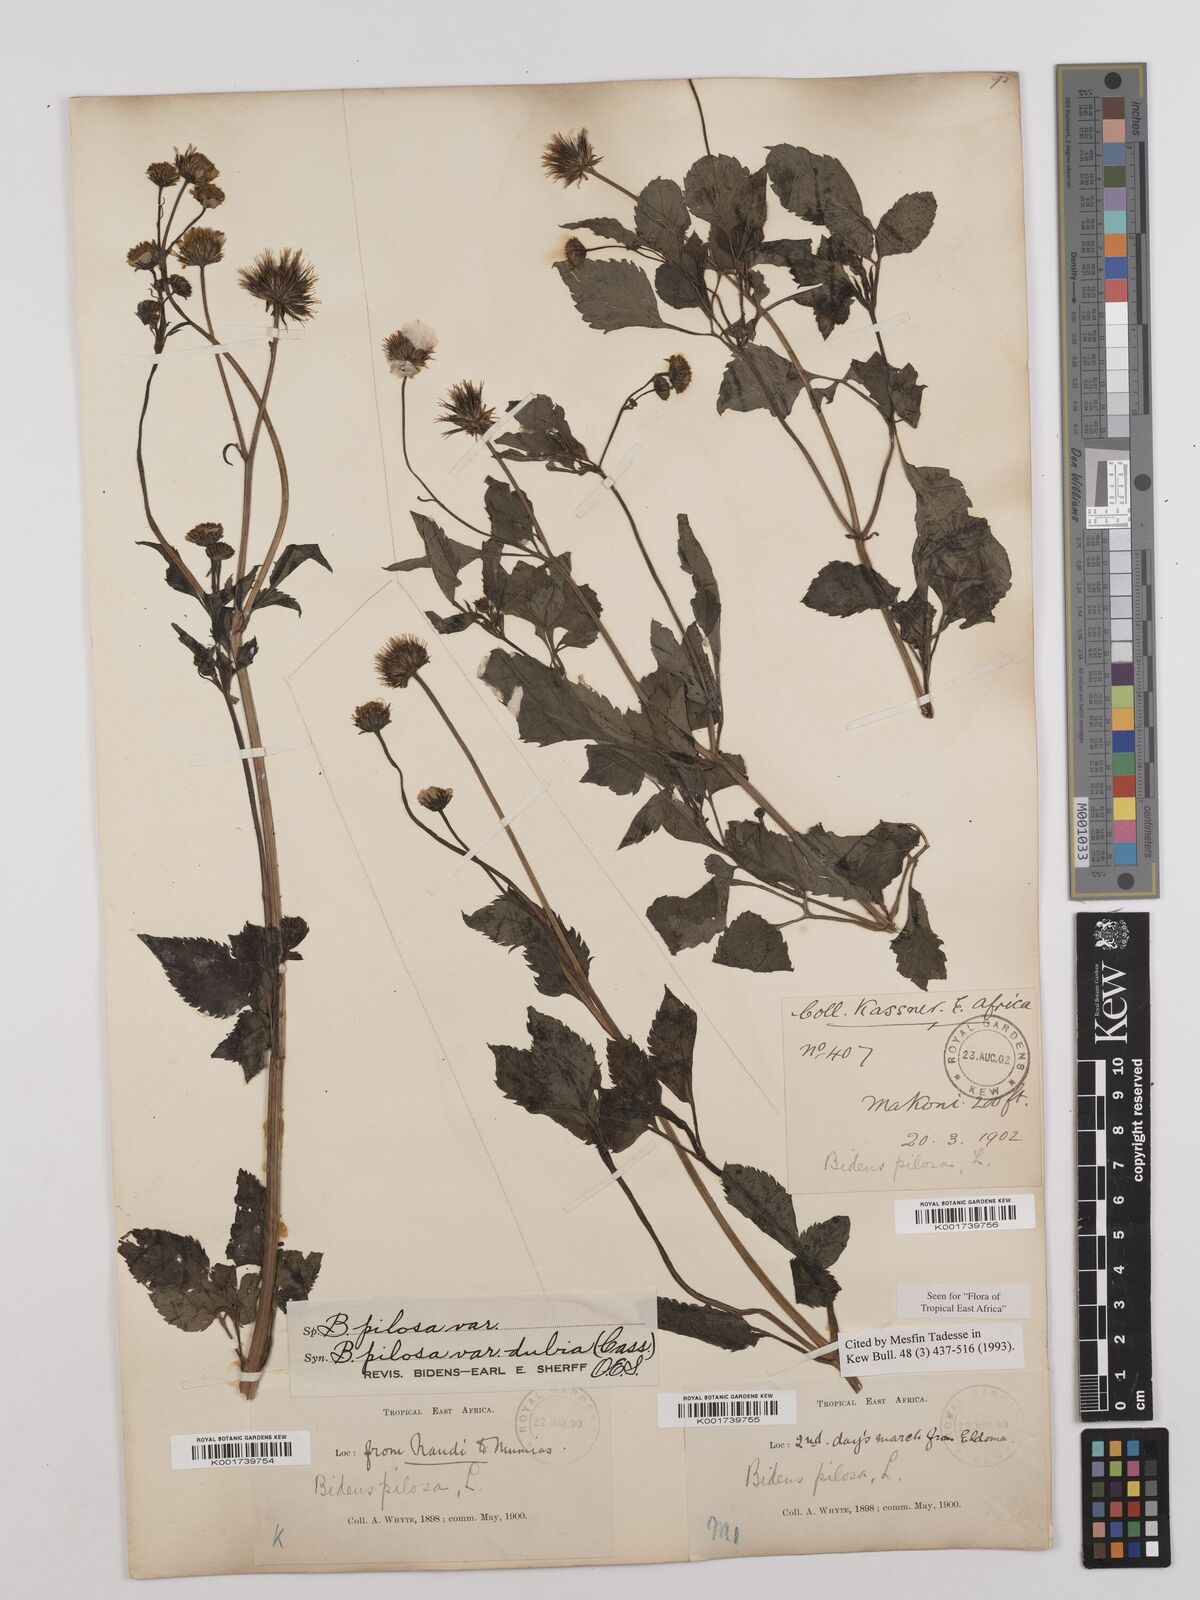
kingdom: Plantae
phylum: Tracheophyta
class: Magnoliopsida
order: Asterales
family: Asteraceae
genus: Bidens
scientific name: Bidens pilosa
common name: Black-jack
